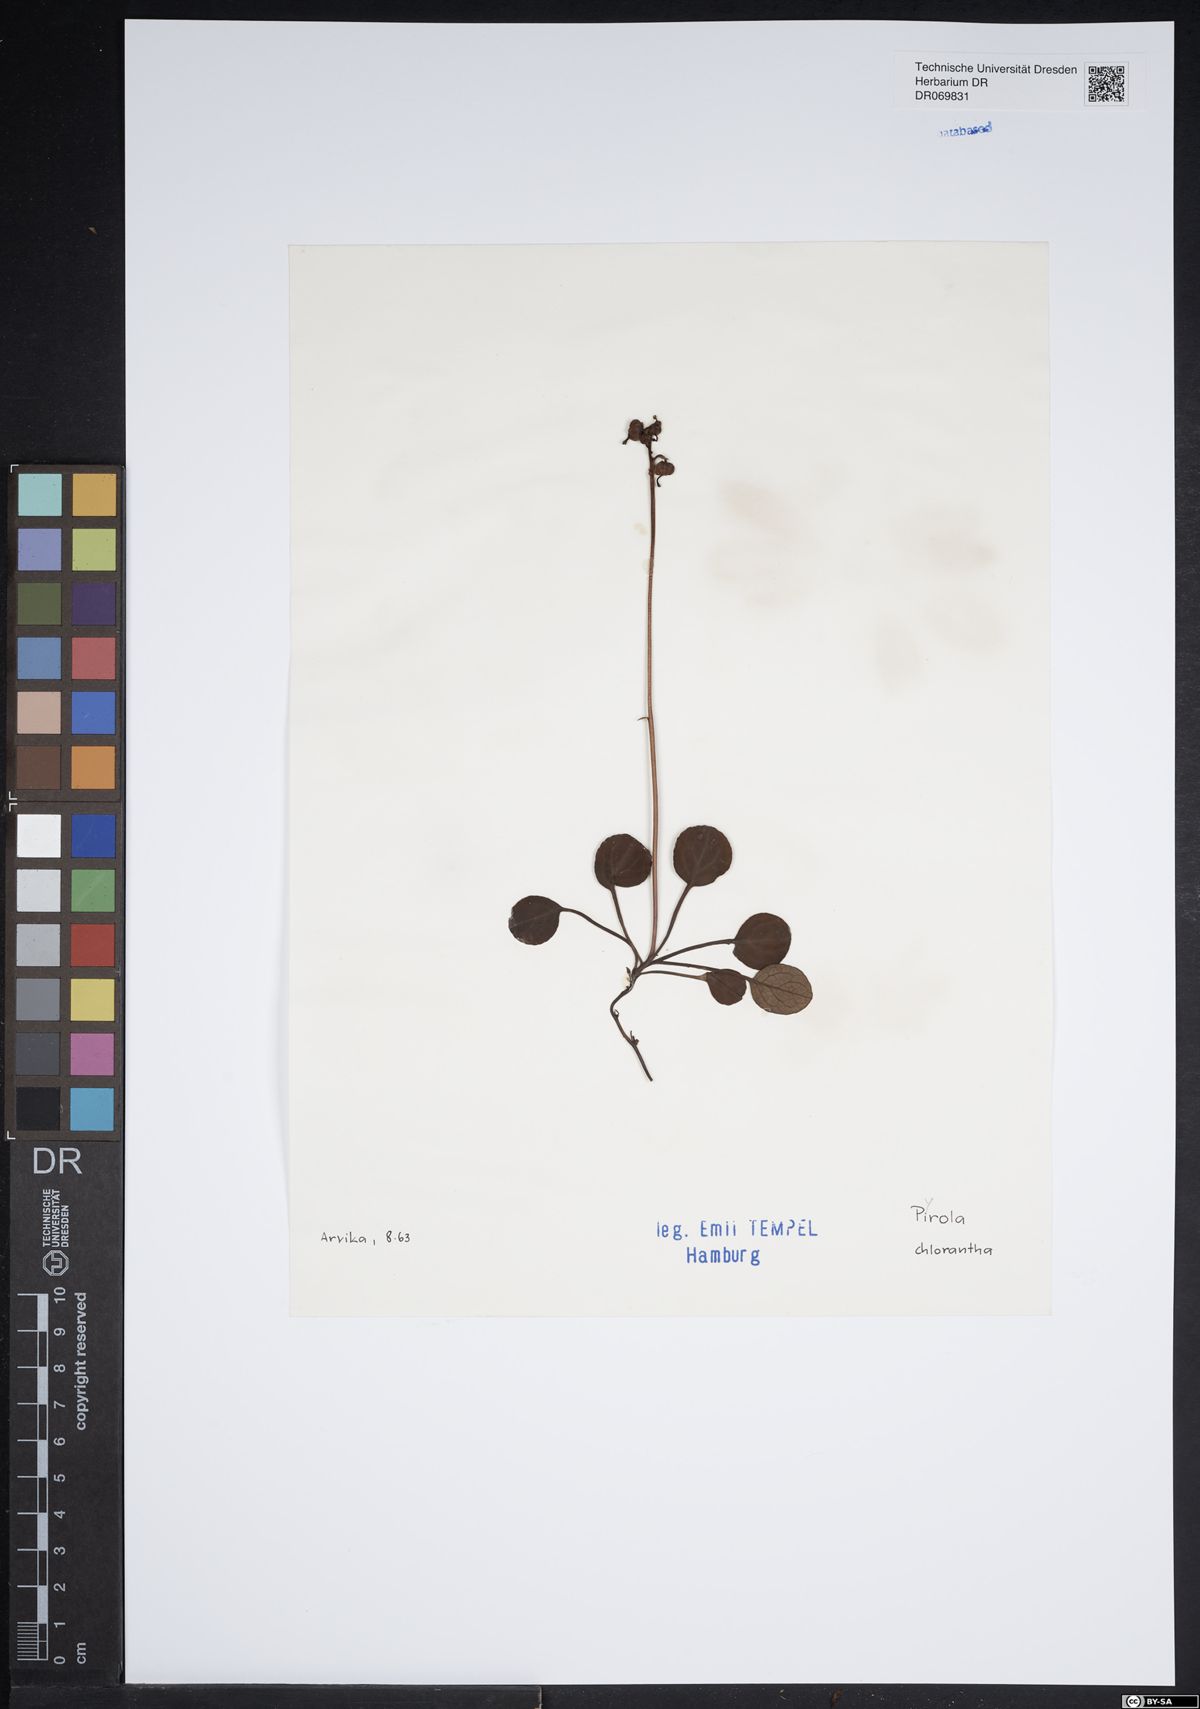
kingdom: Plantae
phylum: Tracheophyta
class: Magnoliopsida
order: Ericales
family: Ericaceae
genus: Pyrola
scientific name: Pyrola chlorantha
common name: Green wintergreen
